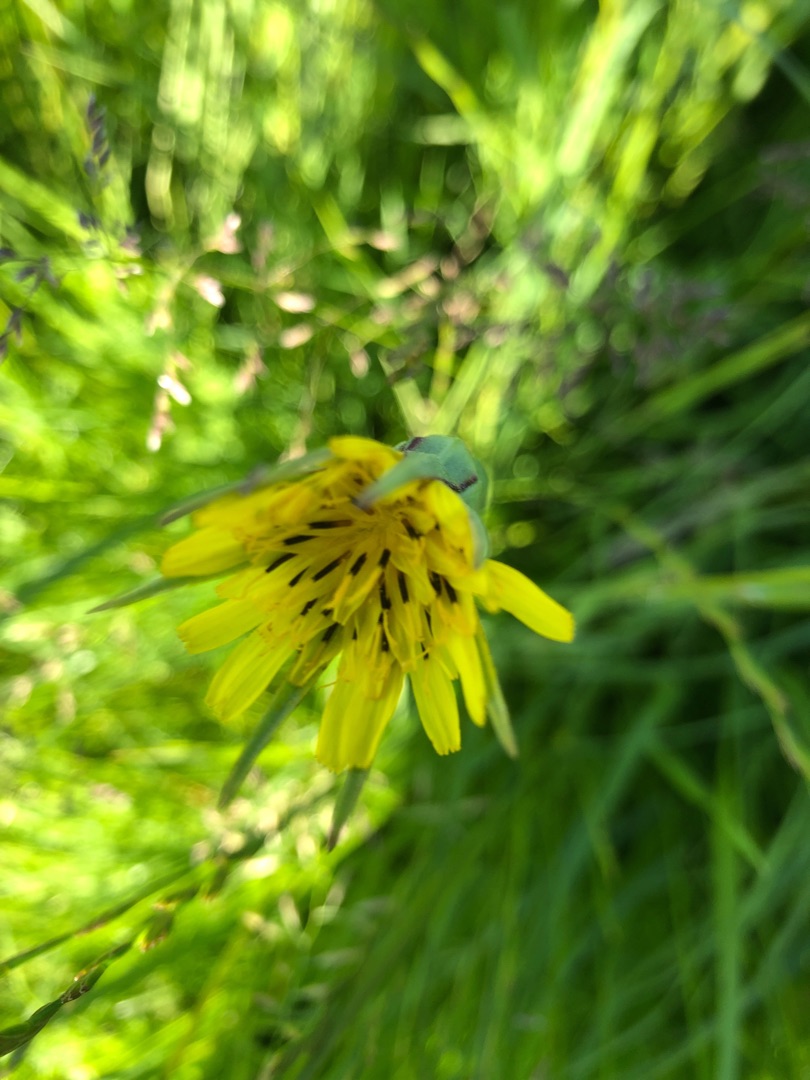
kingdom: Plantae
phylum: Tracheophyta
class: Magnoliopsida
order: Asterales
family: Asteraceae
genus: Tragopogon
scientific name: Tragopogon minor
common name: Småkronet gedeskæg
